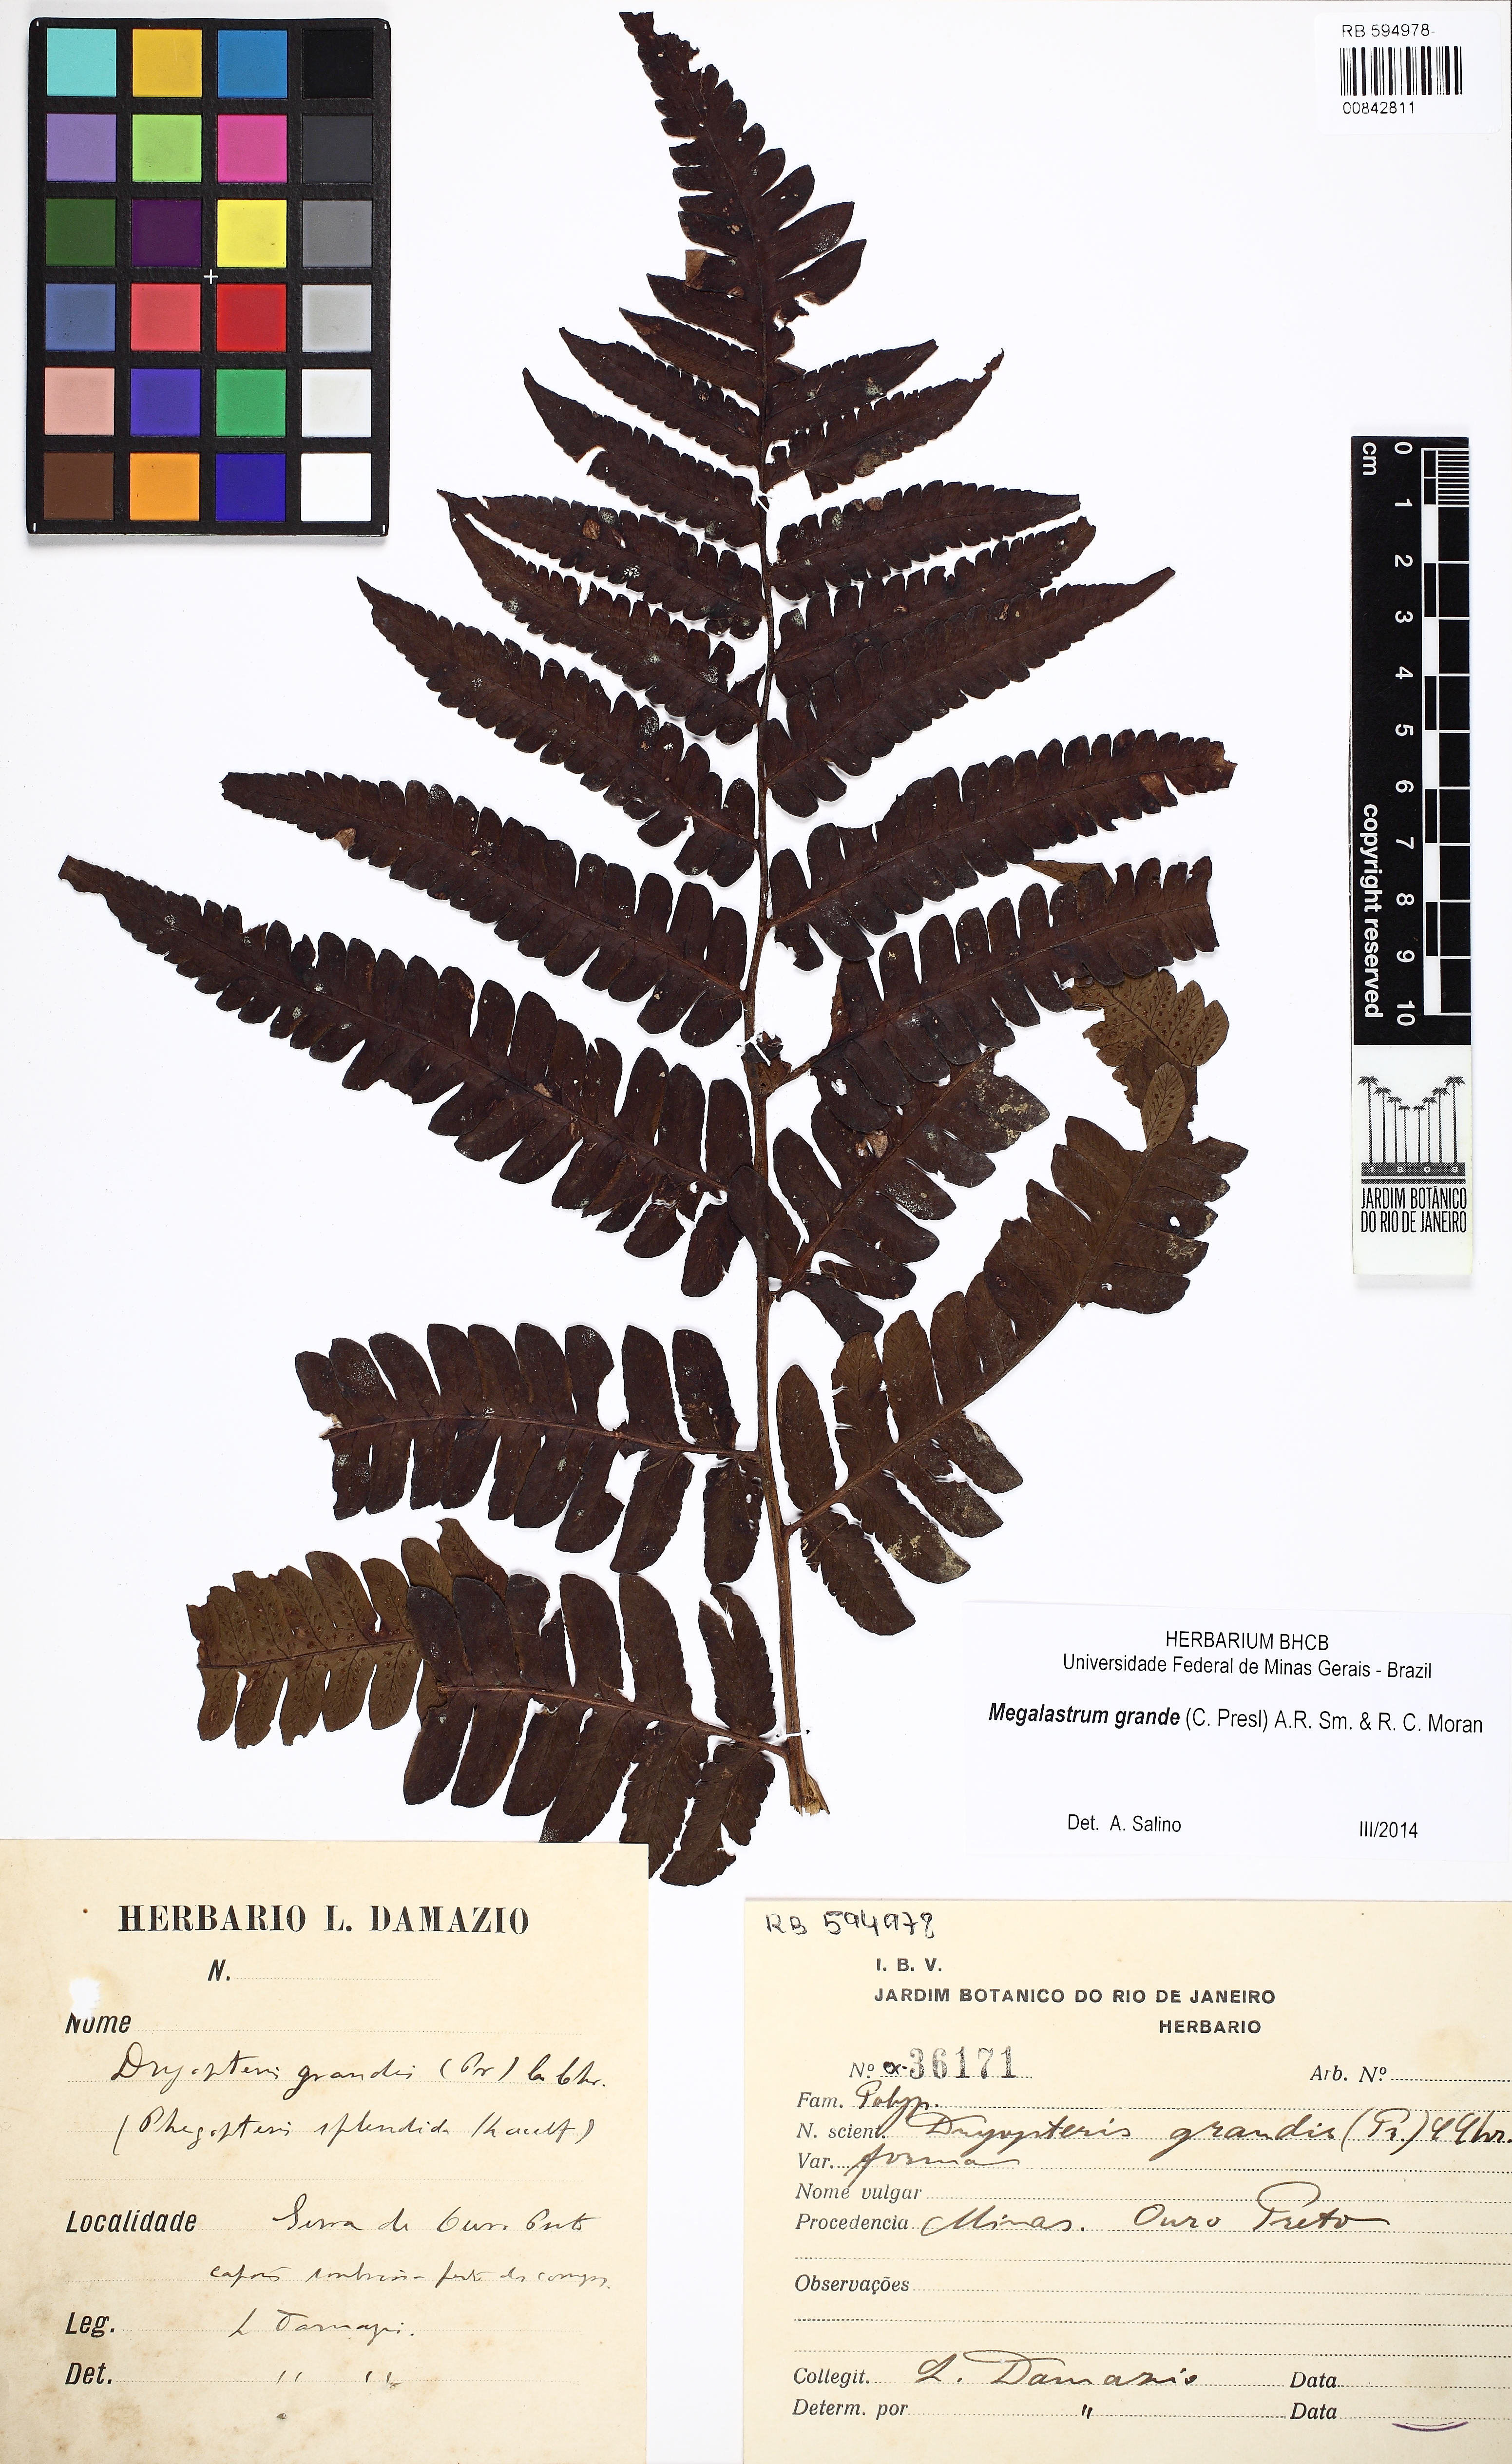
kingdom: Plantae
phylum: Tracheophyta
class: Polypodiopsida
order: Polypodiales
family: Dryopteridaceae
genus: Megalastrum
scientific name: Megalastrum grande
